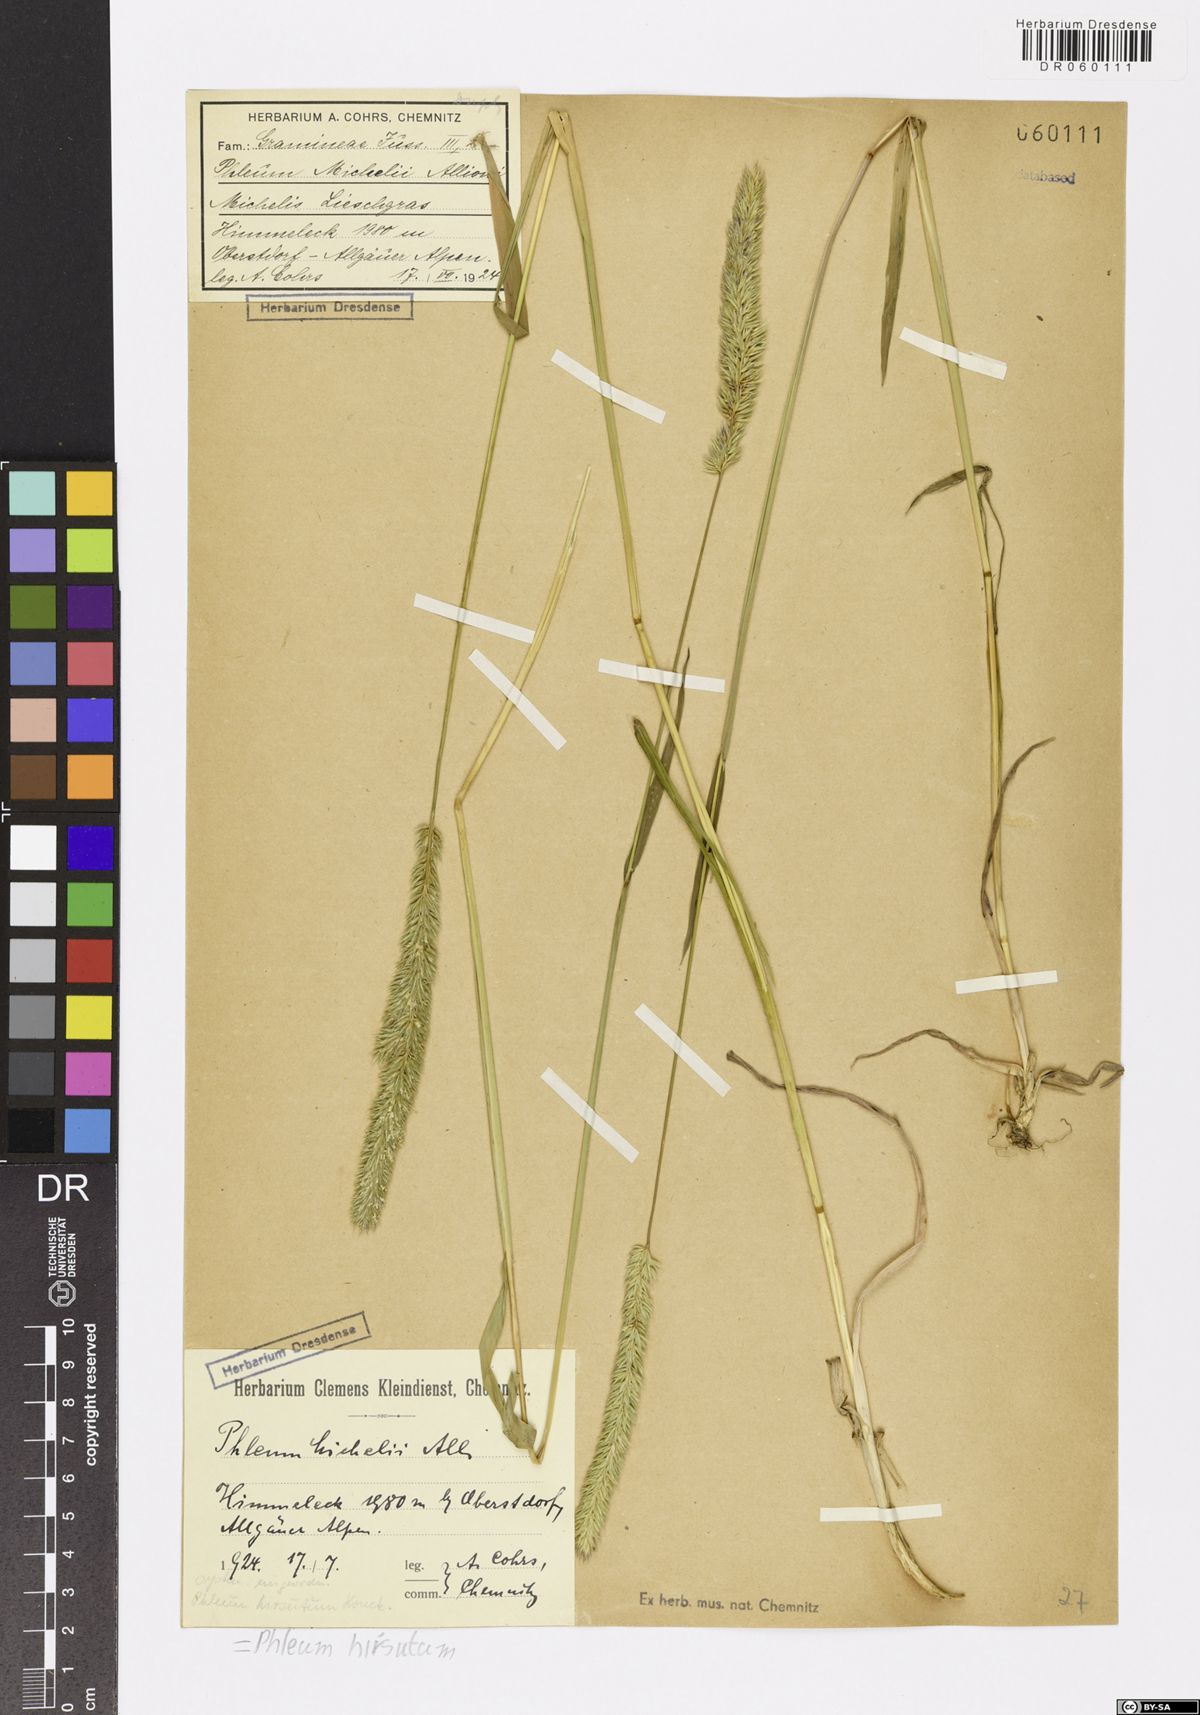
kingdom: Plantae
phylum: Tracheophyta
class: Liliopsida
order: Poales
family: Poaceae
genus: Phleum
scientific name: Phleum hirsutum
